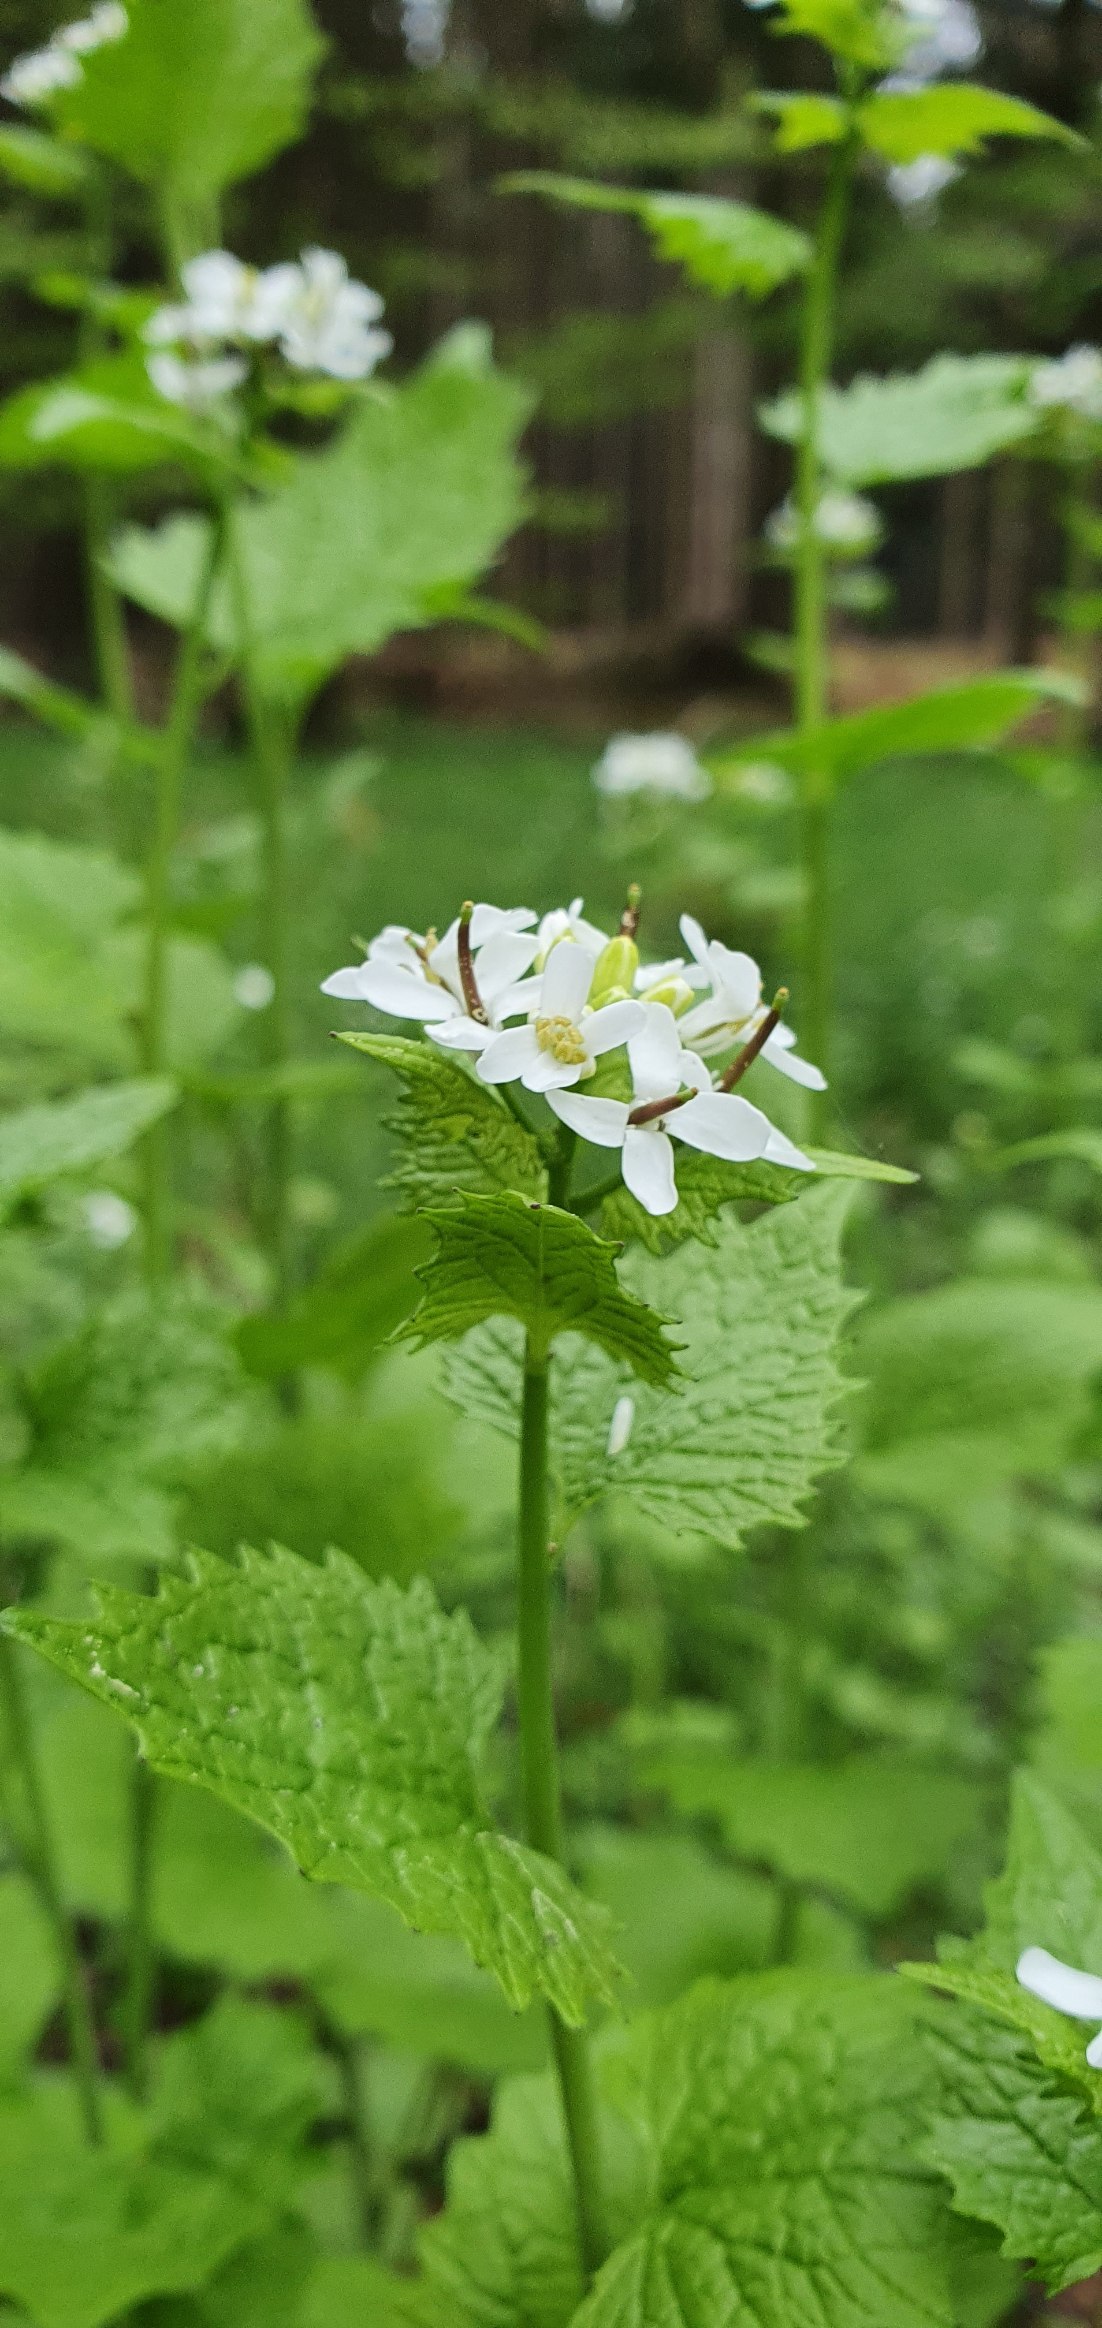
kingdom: Plantae
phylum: Tracheophyta
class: Magnoliopsida
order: Brassicales
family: Brassicaceae
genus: Alliaria
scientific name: Alliaria petiolata
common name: Løgkarse
